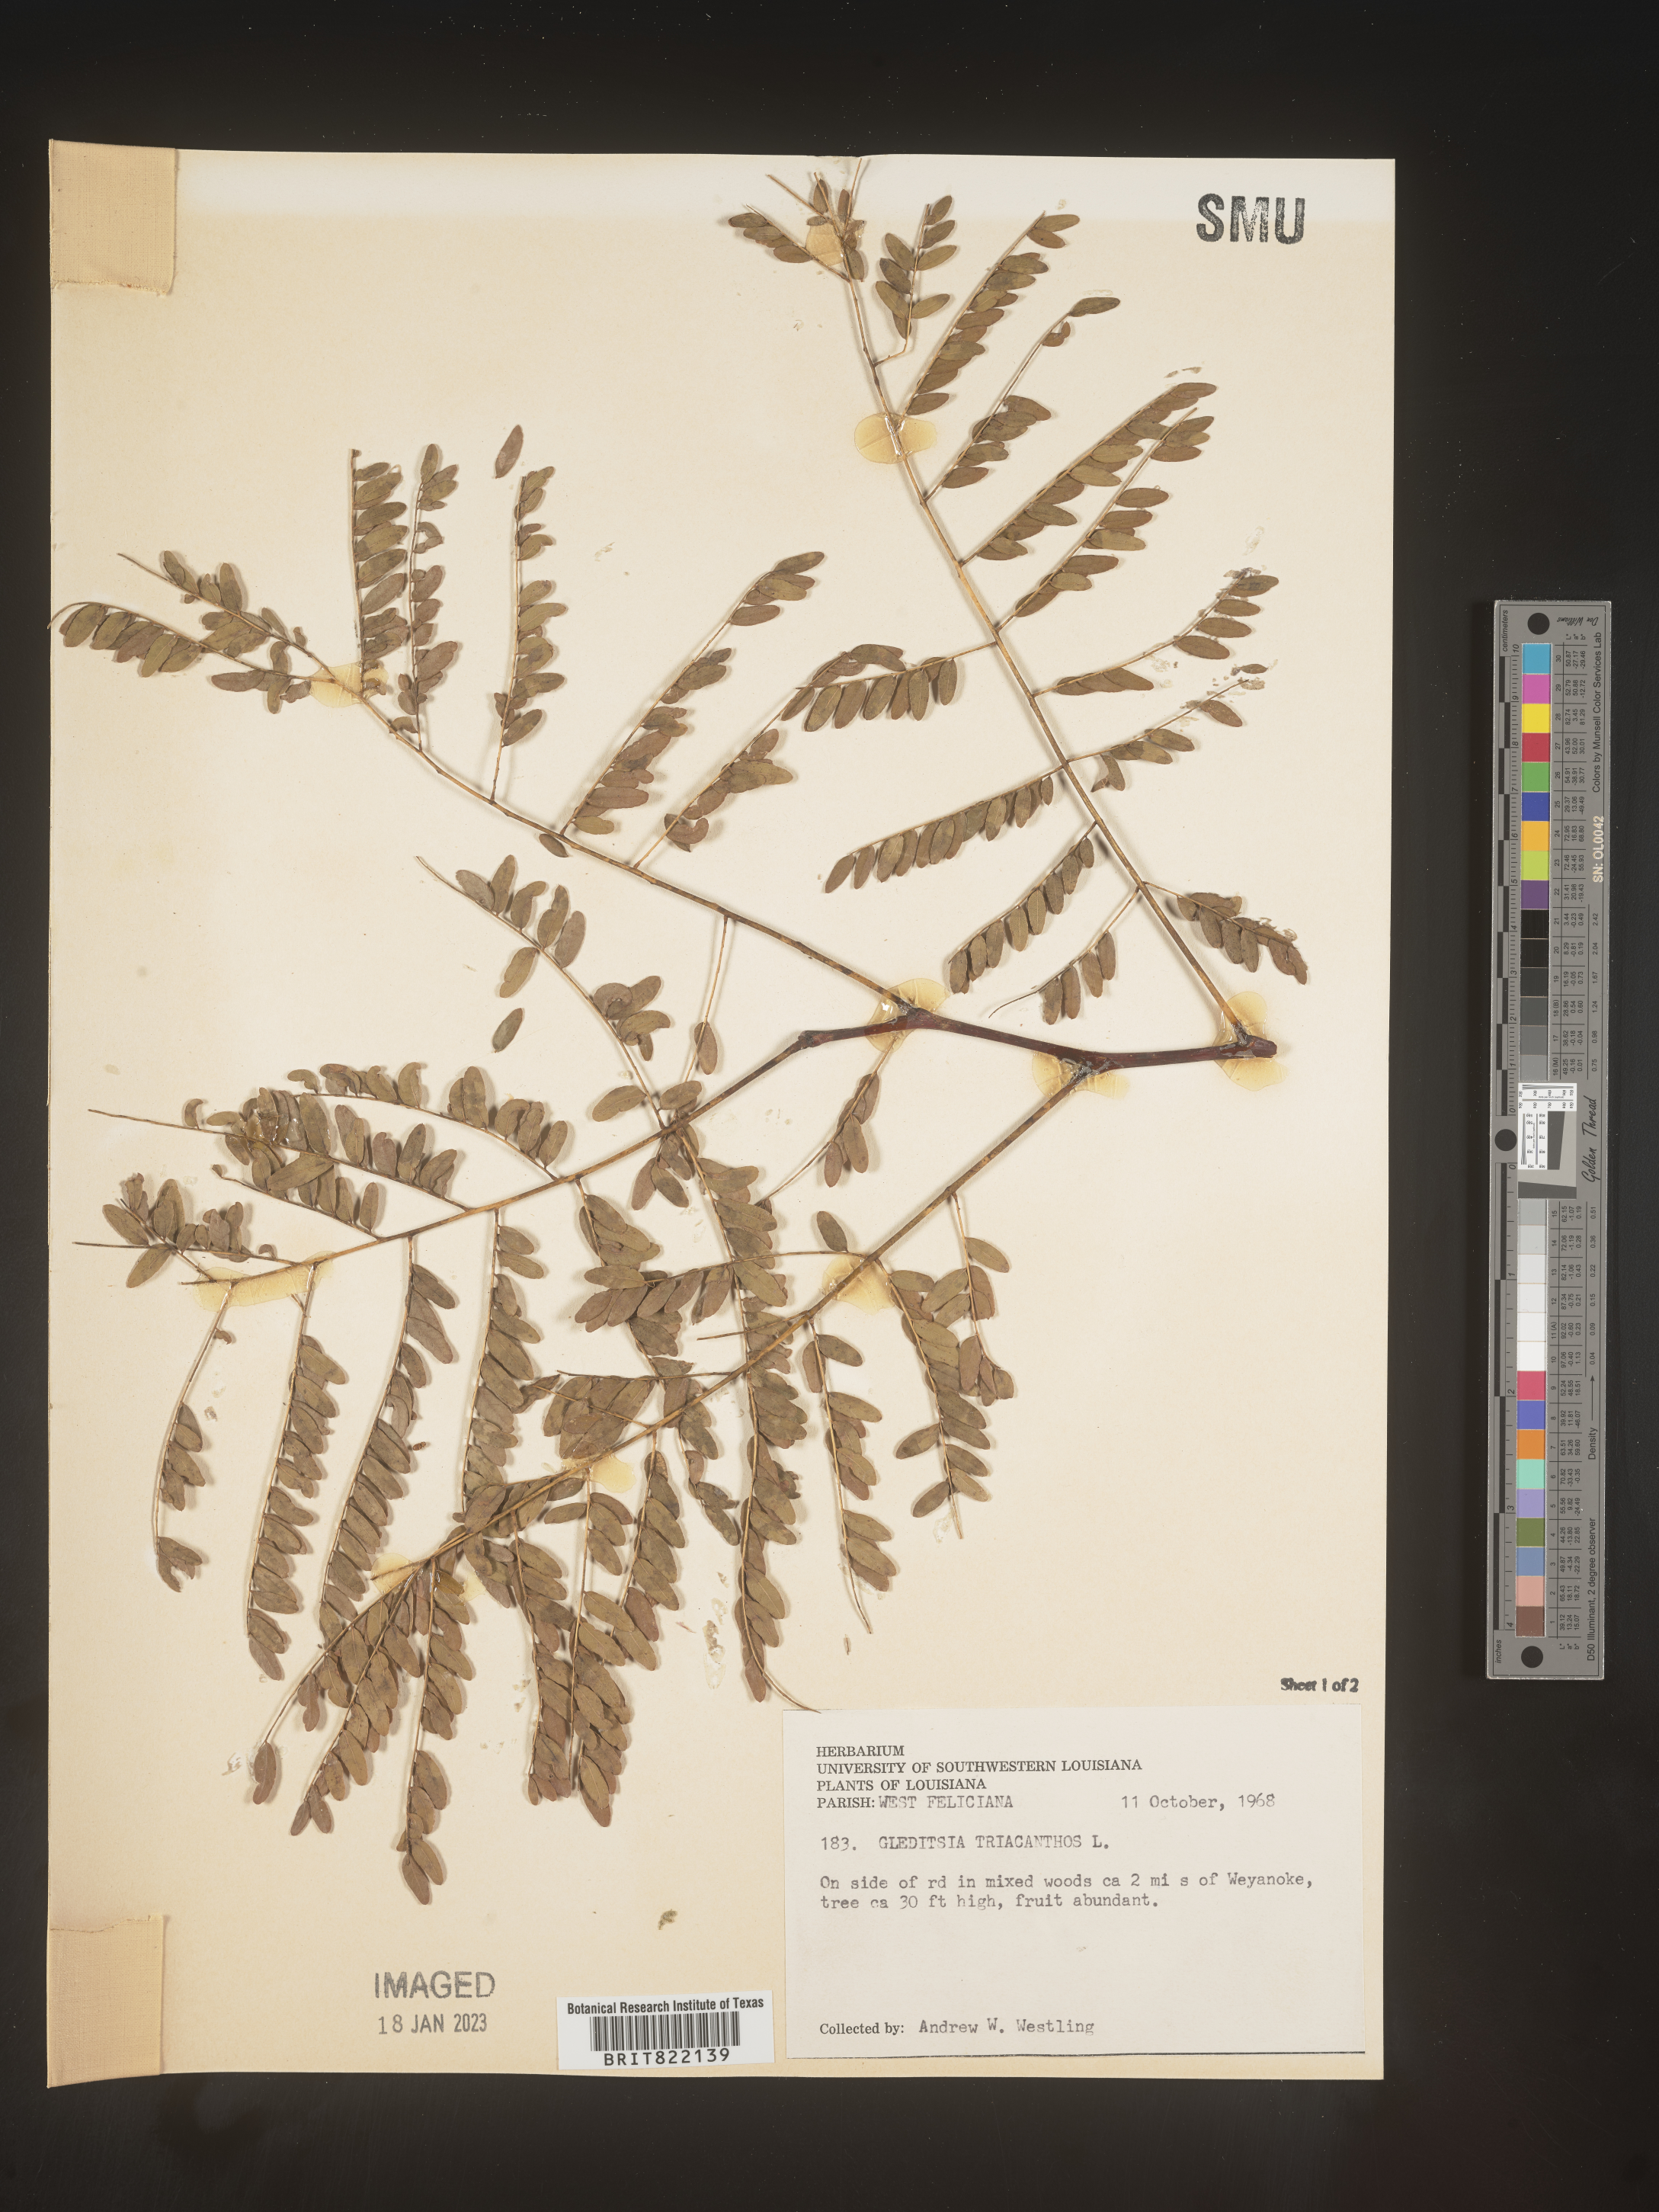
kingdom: Plantae
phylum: Tracheophyta
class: Magnoliopsida
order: Fabales
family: Fabaceae
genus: Gleditsia
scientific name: Gleditsia triacanthos
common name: Common honeylocust
